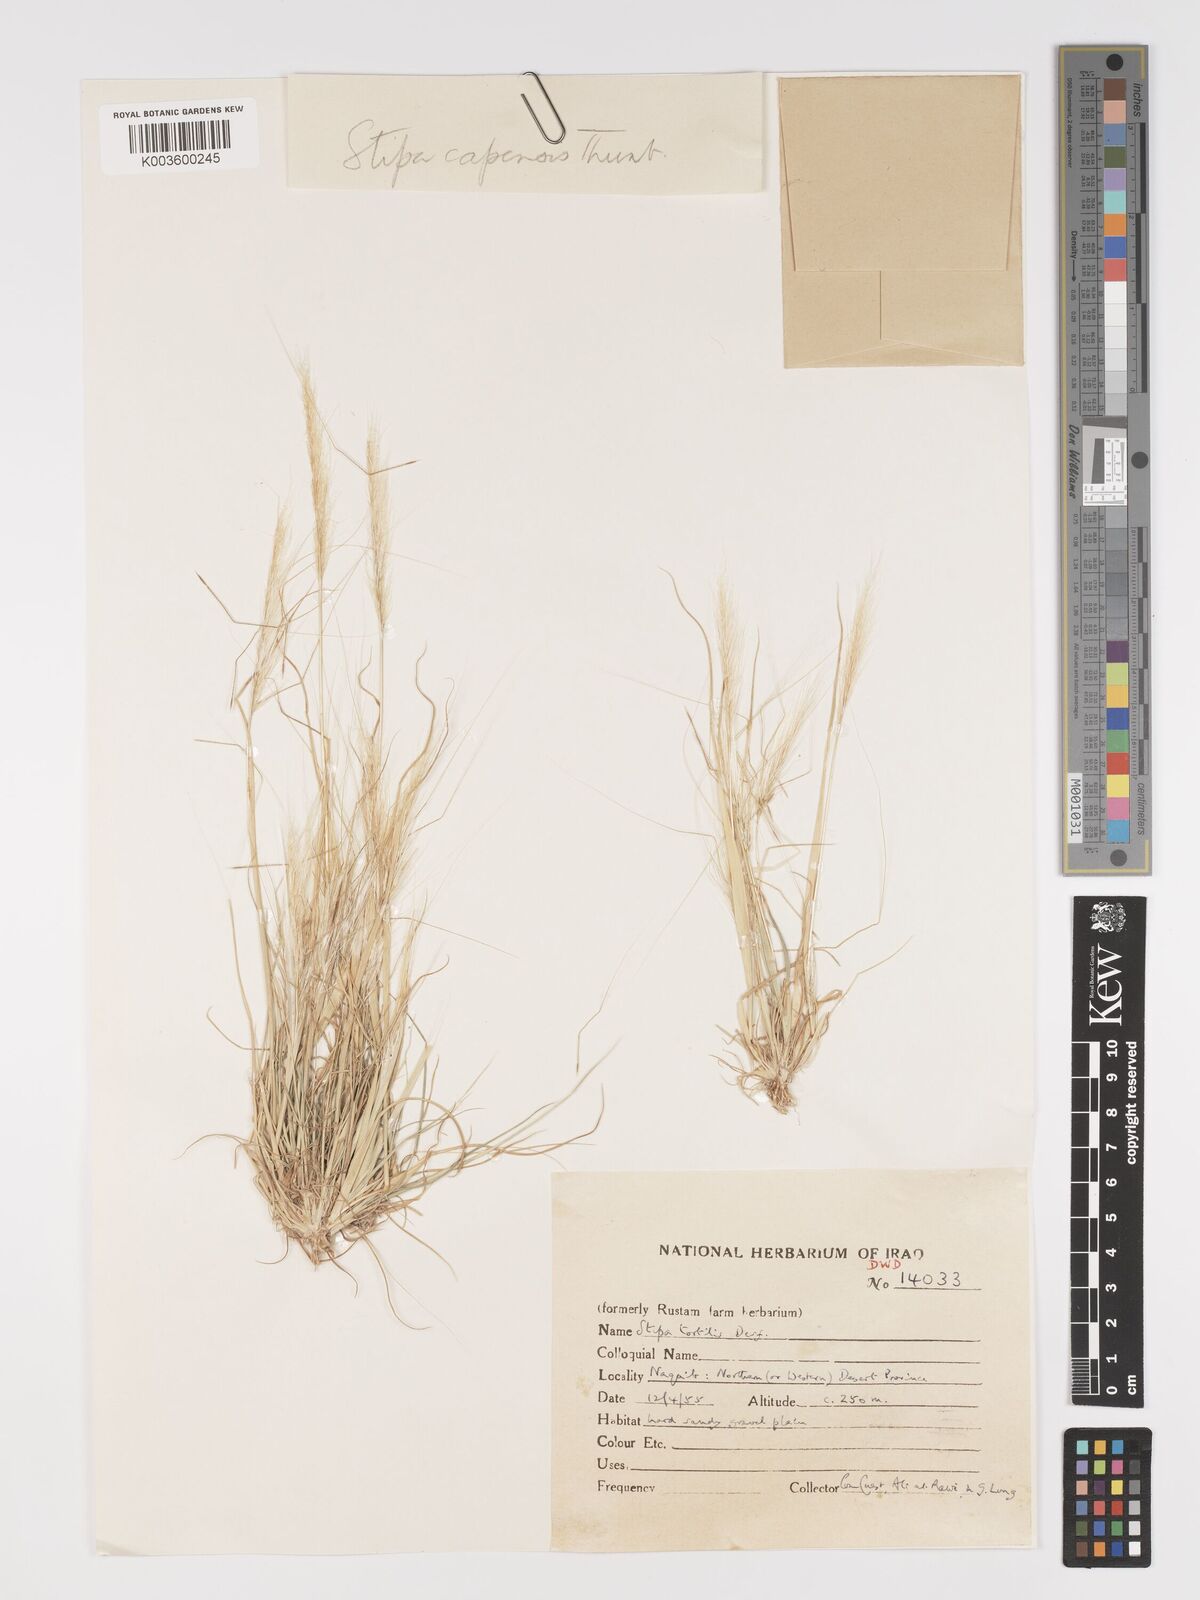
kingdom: Plantae
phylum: Tracheophyta
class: Liliopsida
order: Poales
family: Poaceae
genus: Stipellula
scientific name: Stipellula capensis
